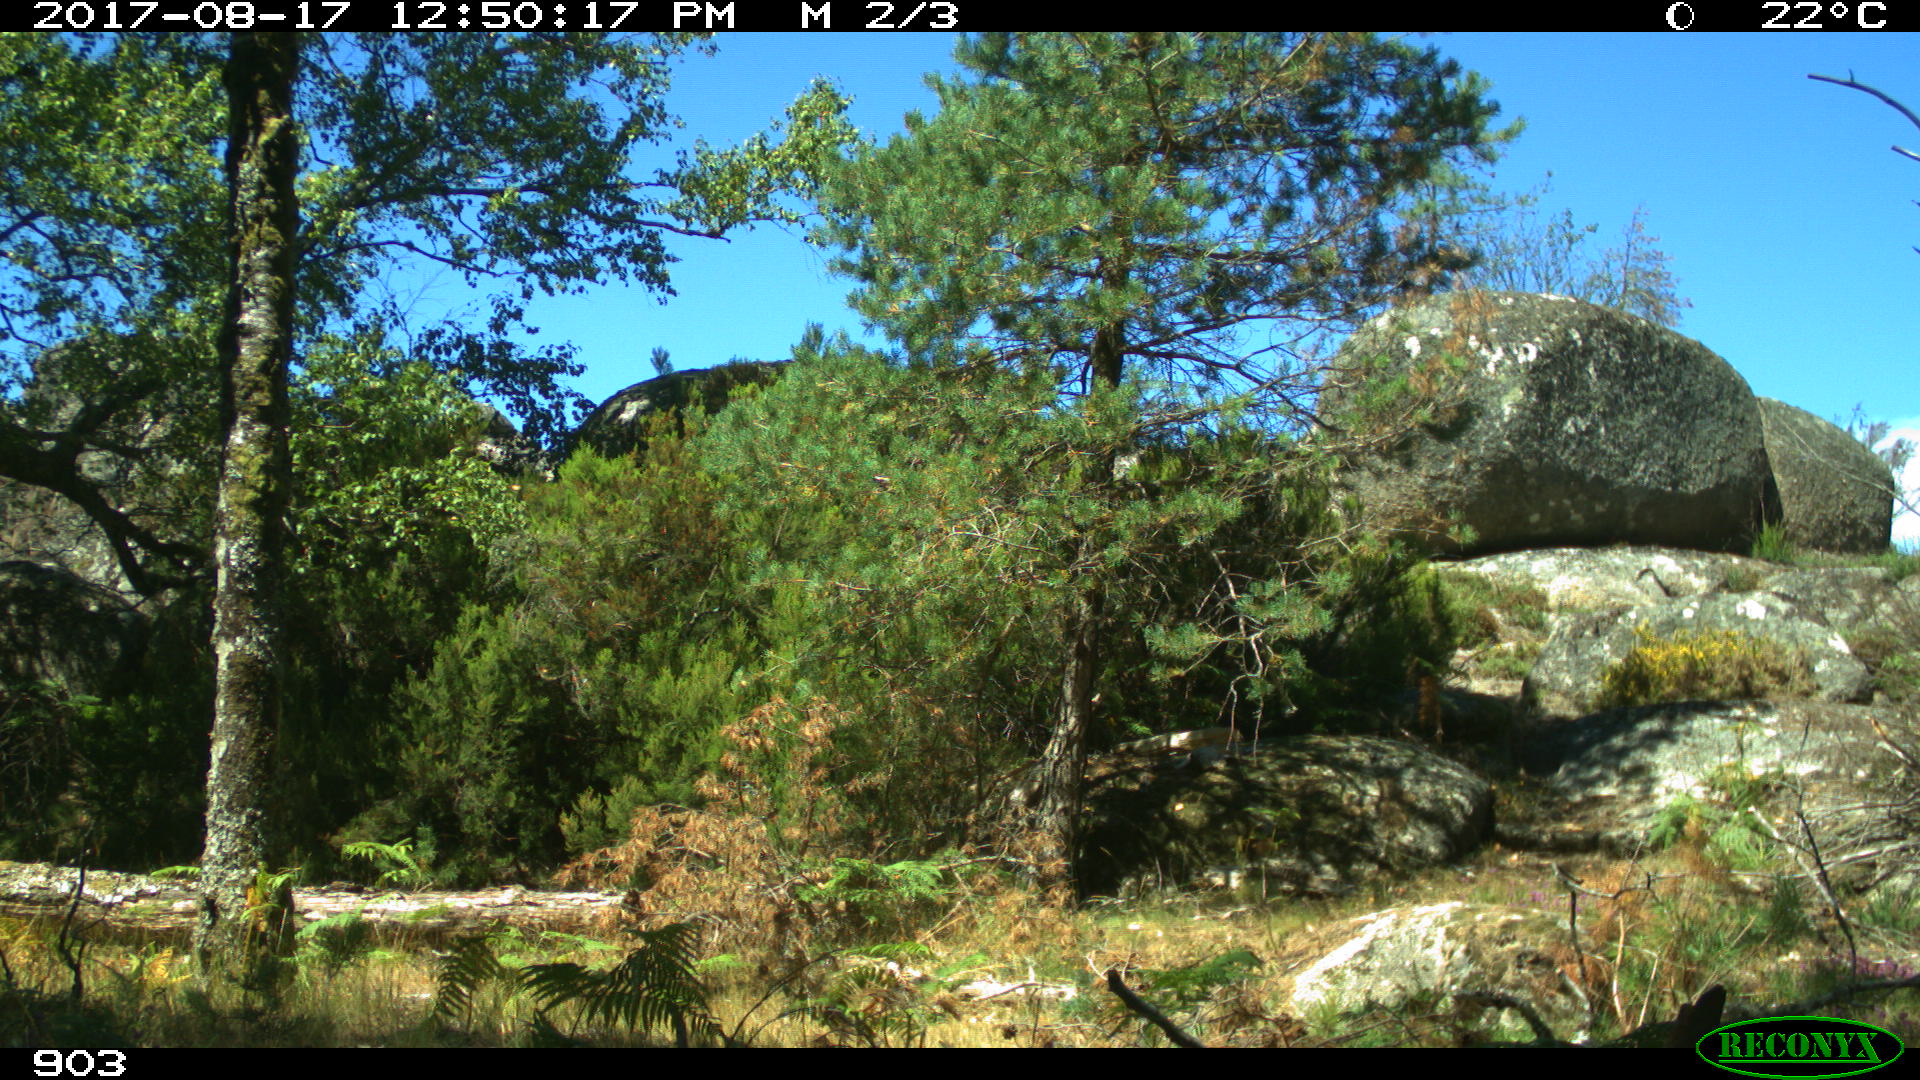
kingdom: Animalia
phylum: Chordata
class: Mammalia
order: Perissodactyla
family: Equidae
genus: Equus
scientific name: Equus caballus
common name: Horse
